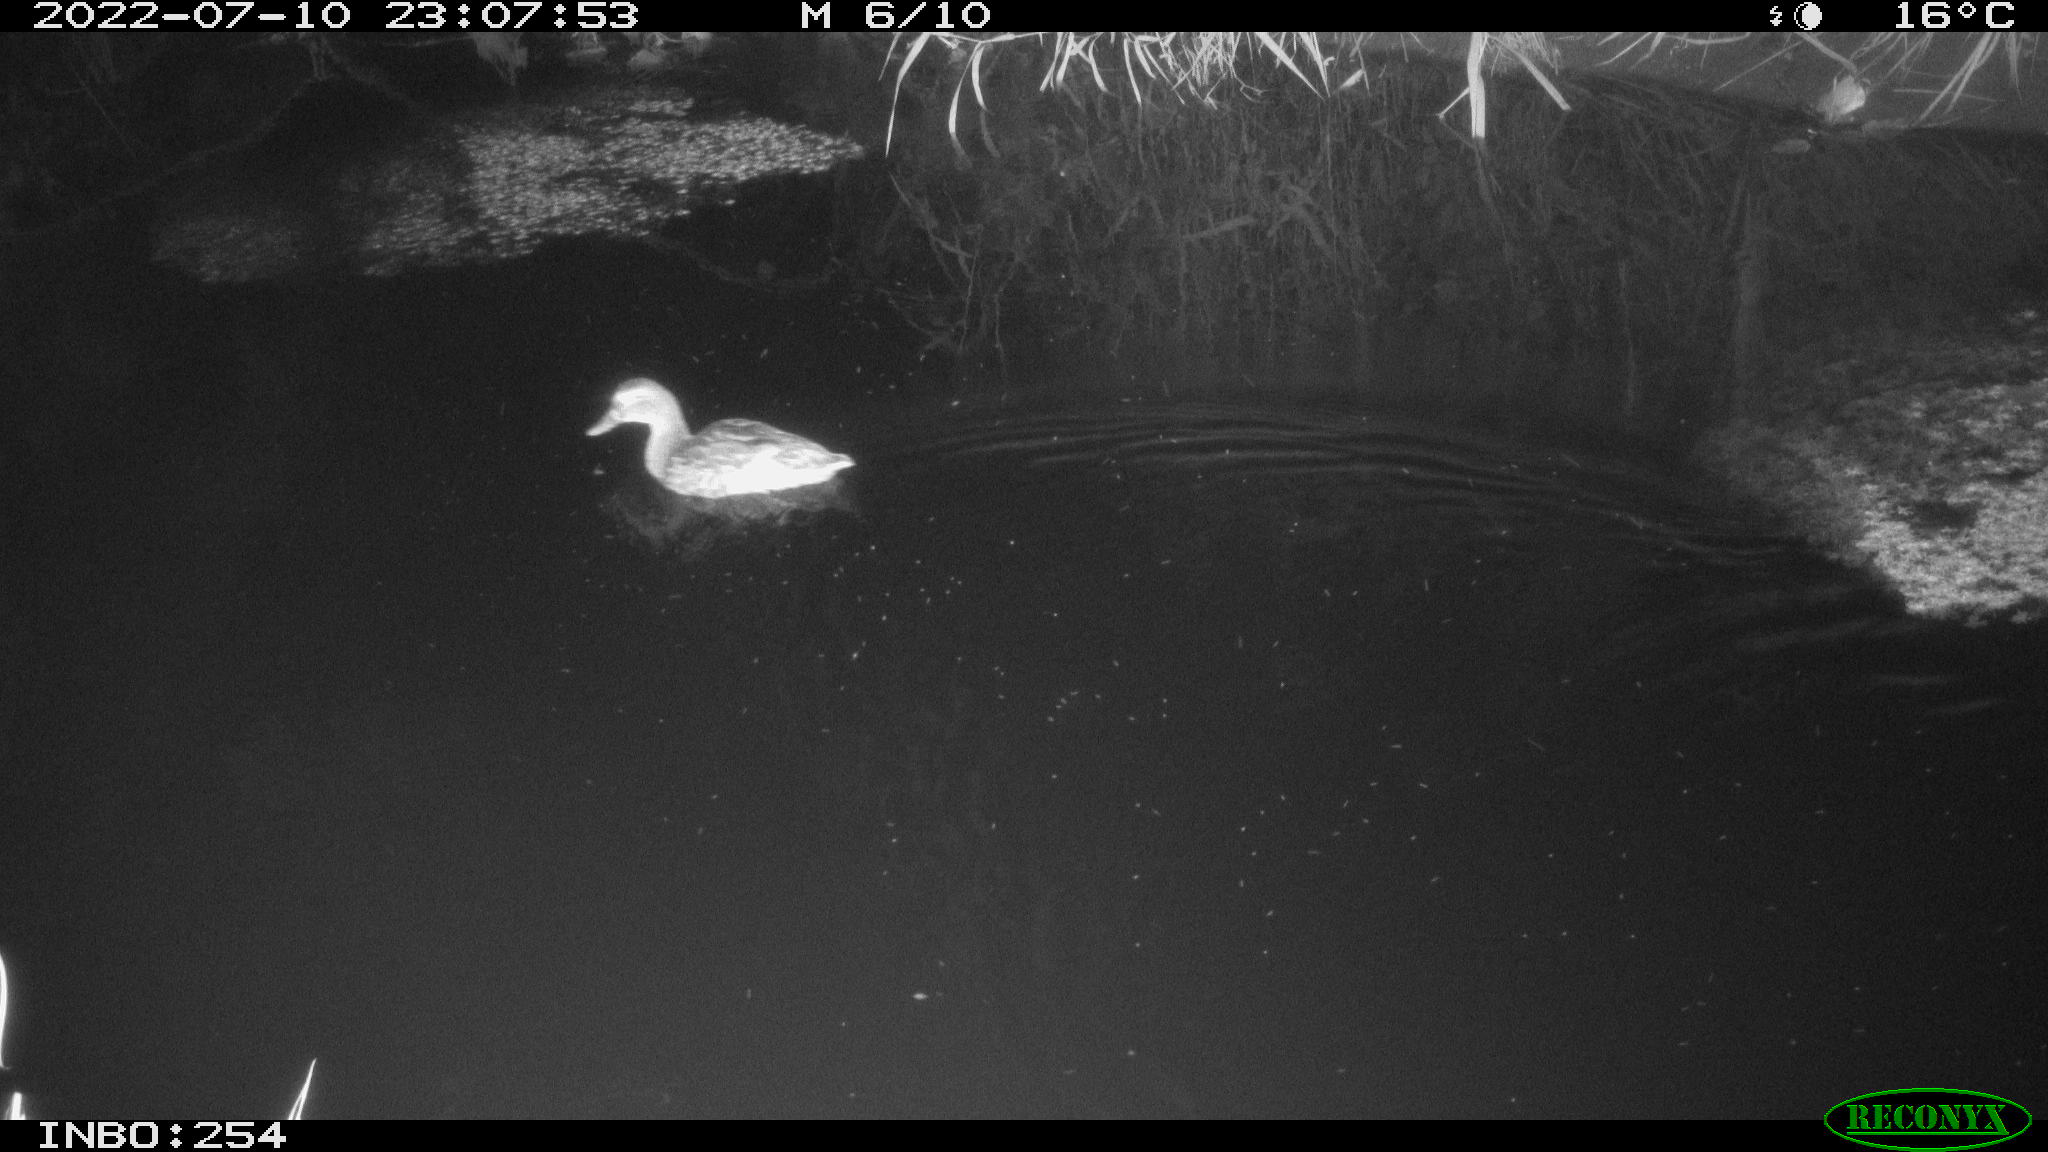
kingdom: Animalia
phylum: Chordata
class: Aves
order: Anseriformes
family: Anatidae
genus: Anas
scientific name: Anas platyrhynchos
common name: Mallard
